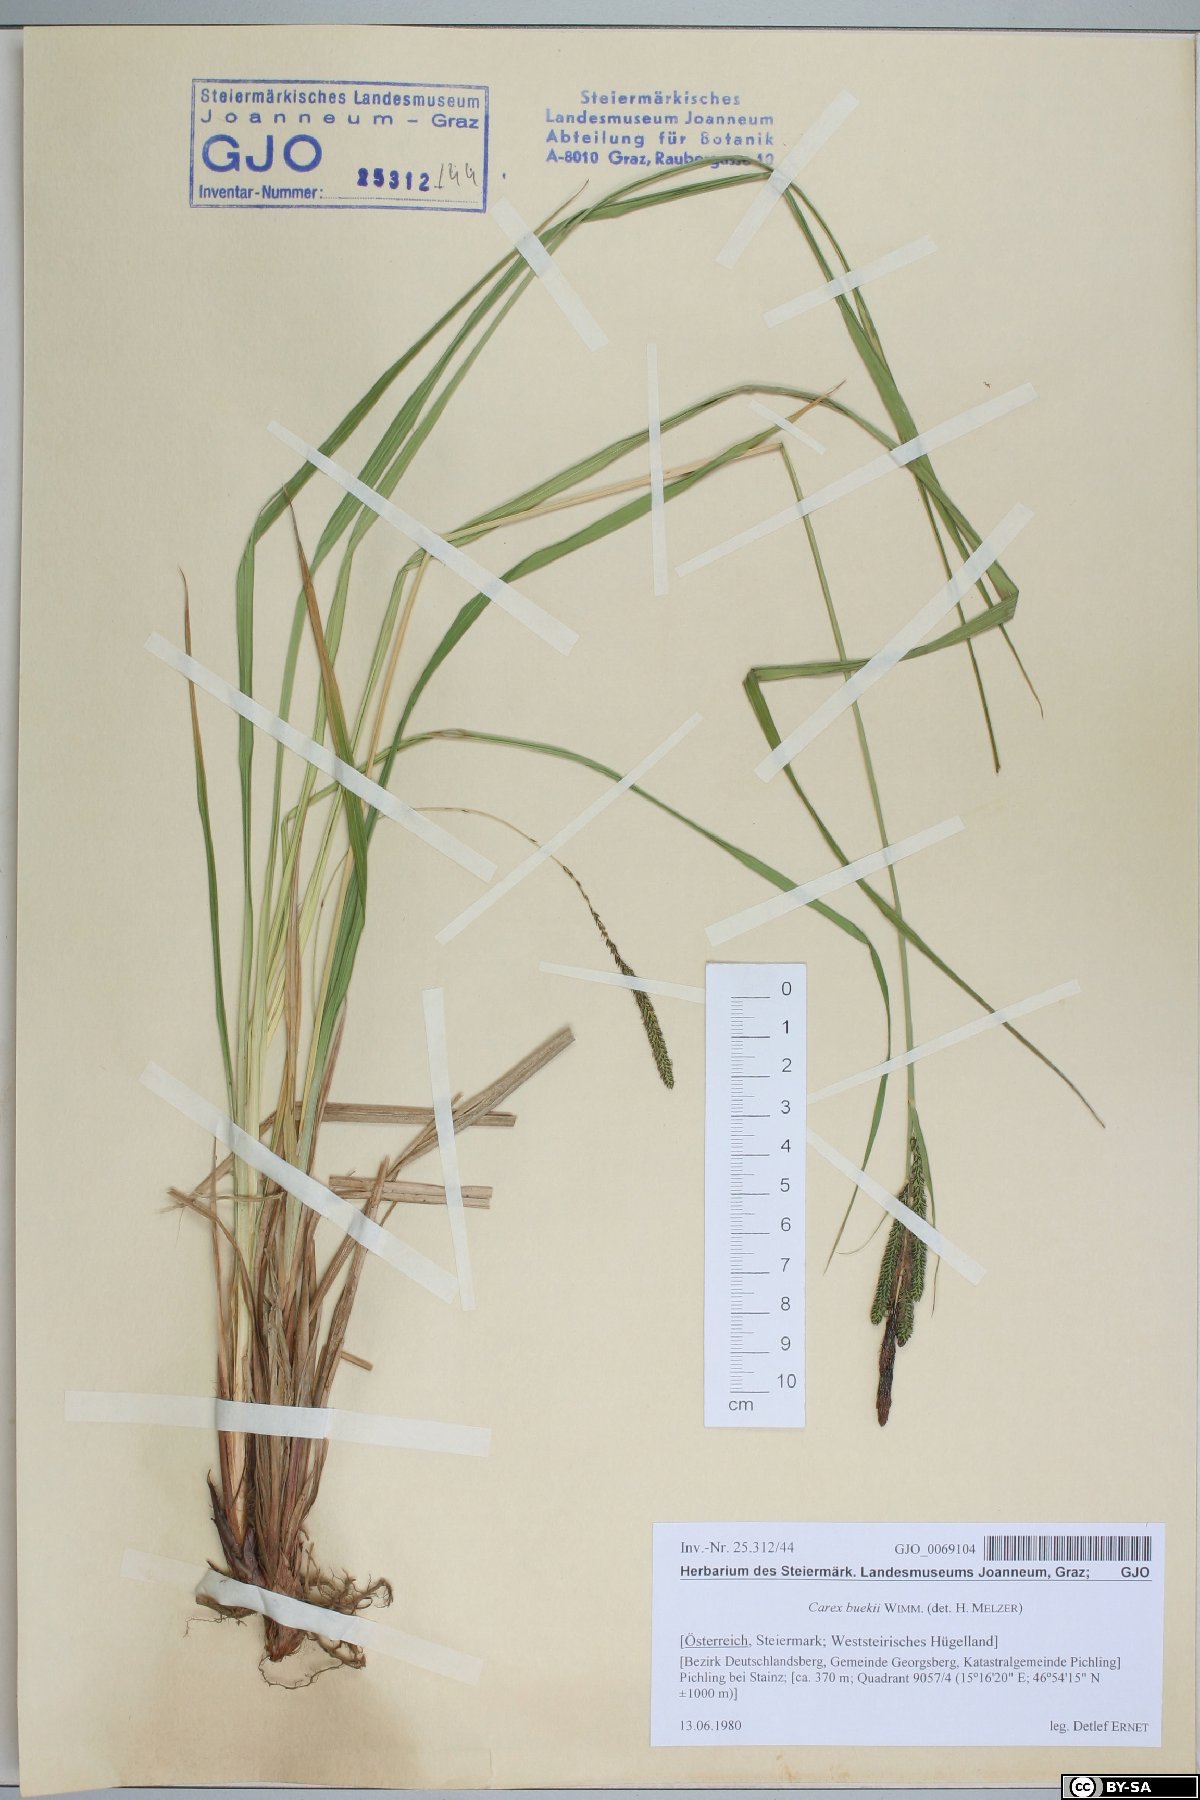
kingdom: Plantae
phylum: Tracheophyta
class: Liliopsida
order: Poales
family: Cyperaceae
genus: Carex
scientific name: Carex buekii
